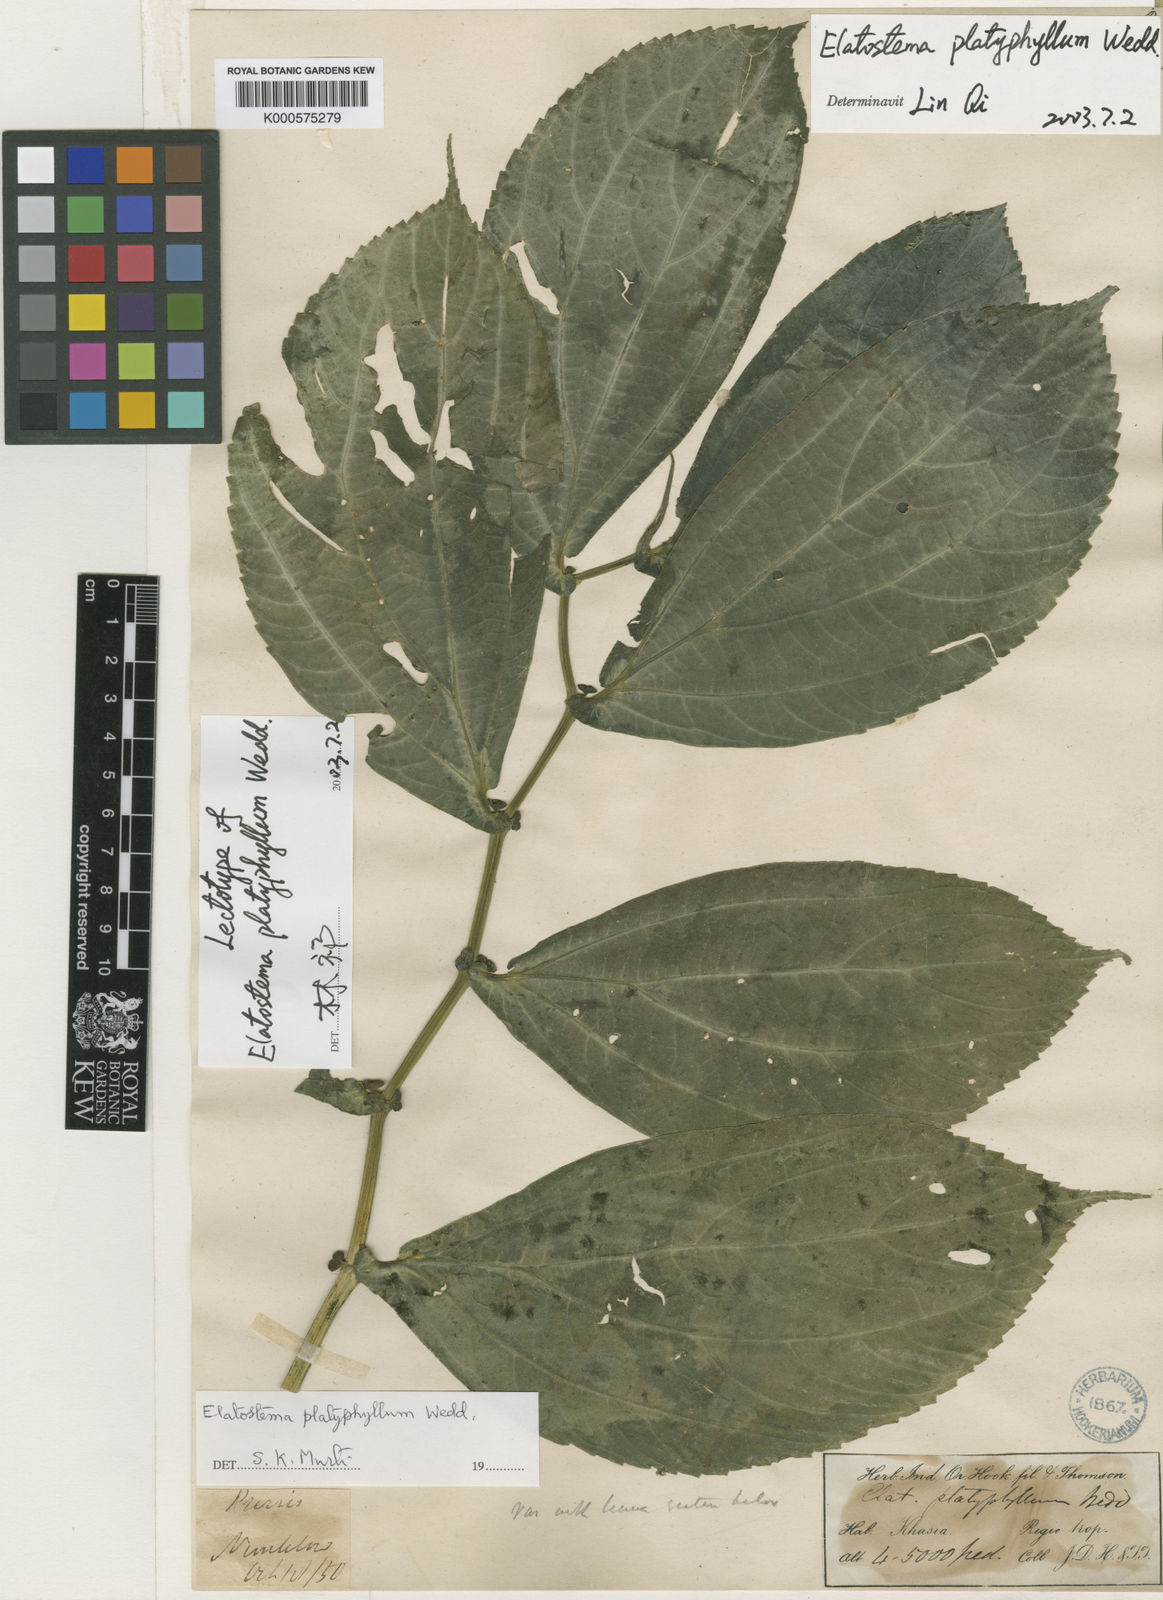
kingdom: Plantae
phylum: Tracheophyta
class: Magnoliopsida
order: Rosales
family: Urticaceae
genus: Elatostema
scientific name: Elatostema platyphyllum
